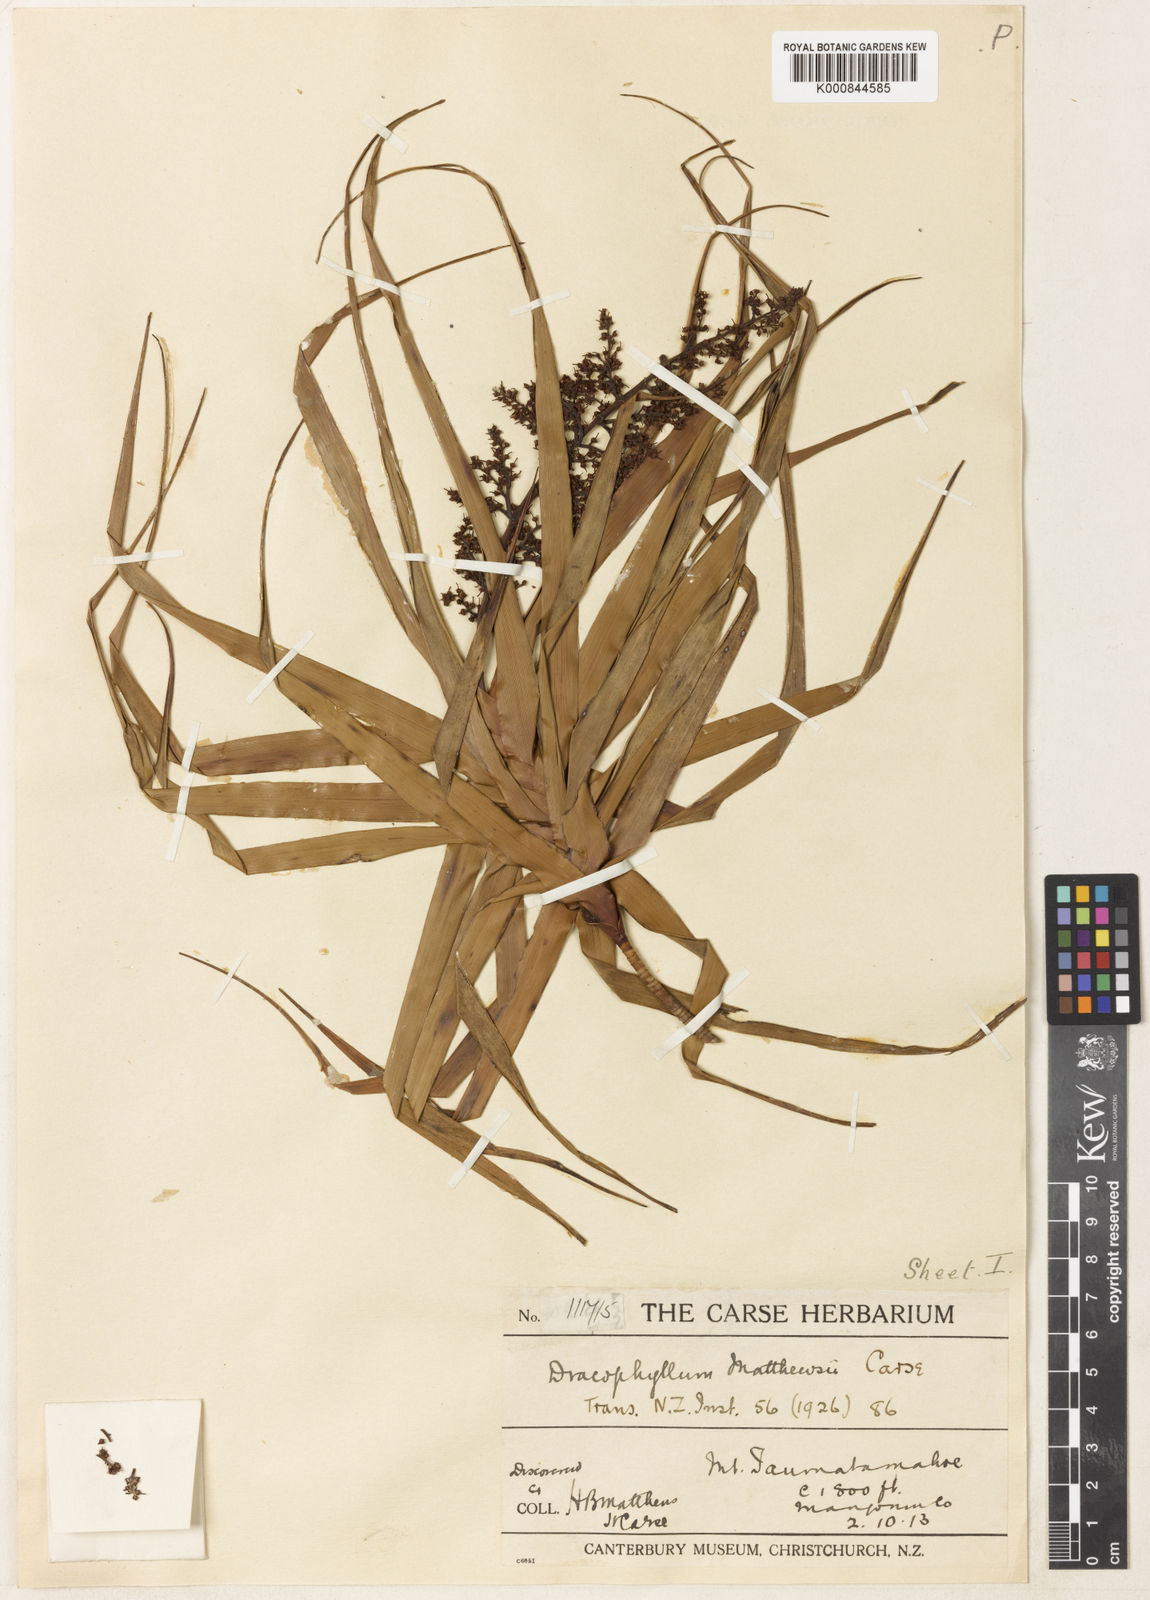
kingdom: Plantae
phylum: Tracheophyta
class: Magnoliopsida
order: Ericales
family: Ericaceae
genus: Dracophyllum
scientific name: Dracophyllum latifolium
